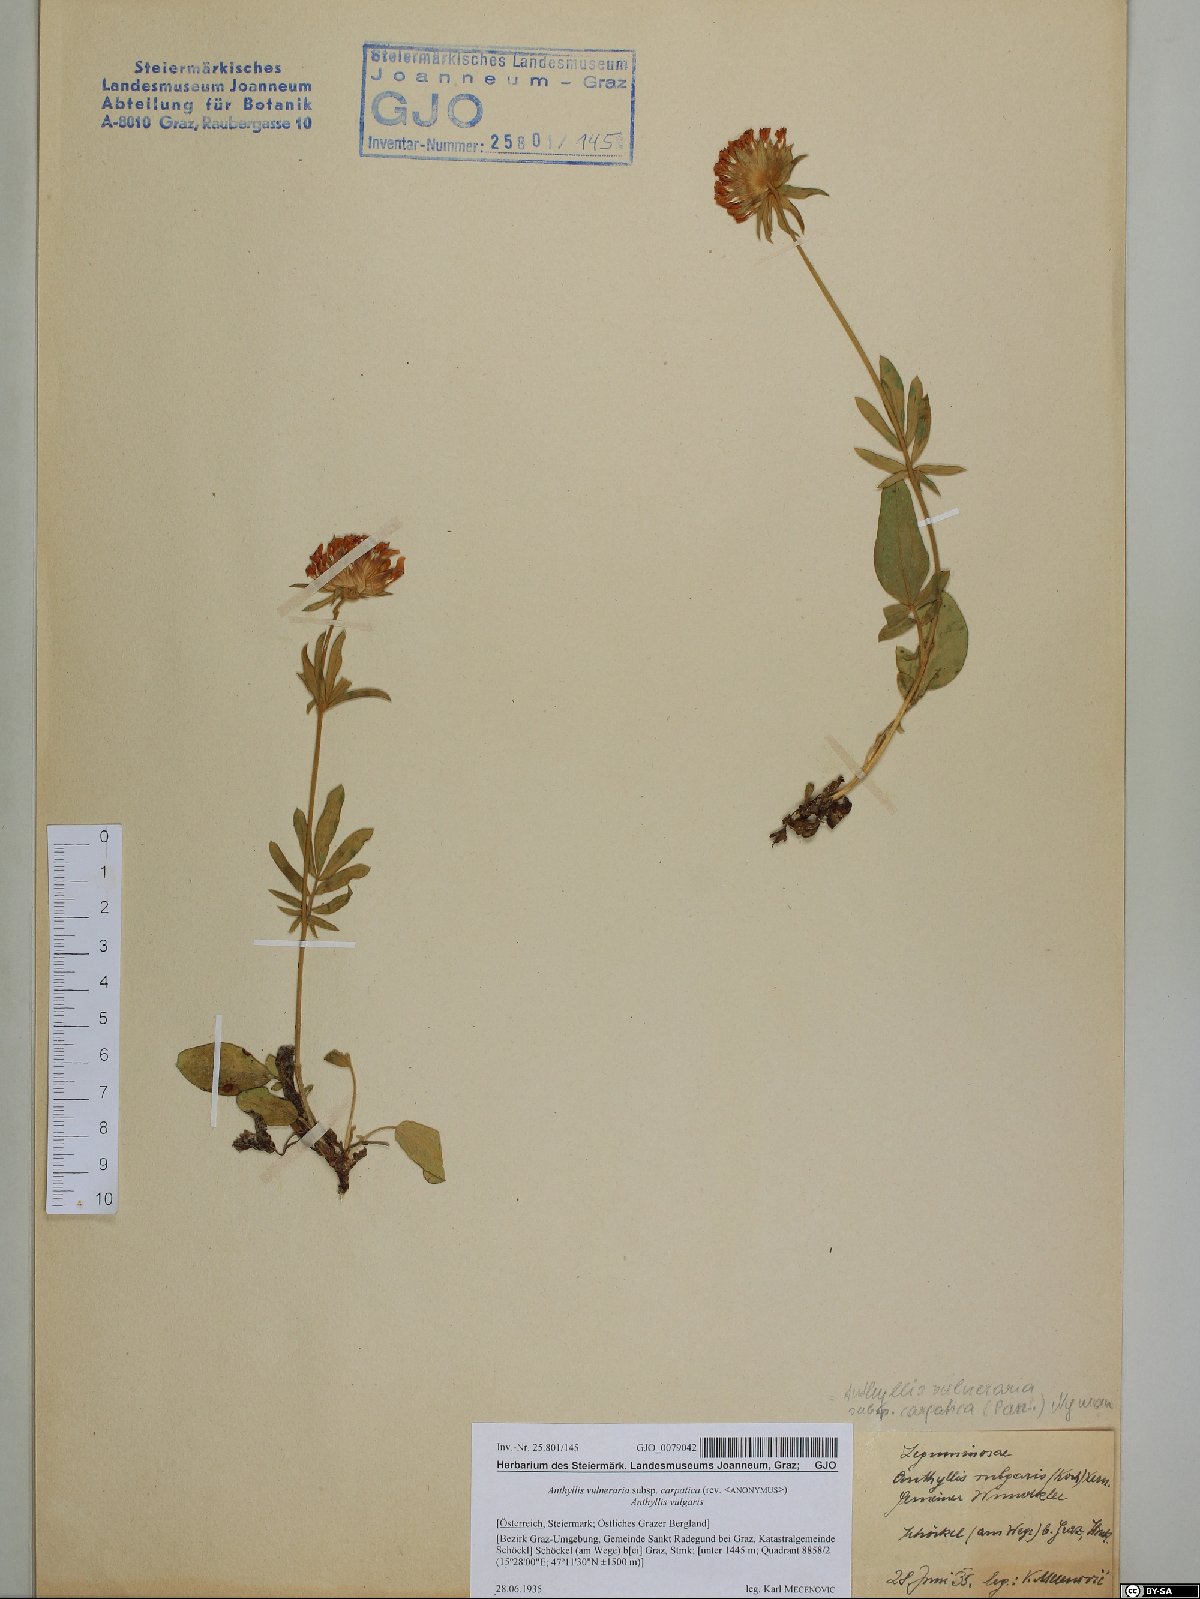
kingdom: Plantae
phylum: Tracheophyta
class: Magnoliopsida
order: Fabales
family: Fabaceae
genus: Anthyllis
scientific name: Anthyllis vulneraria
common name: Kidney vetch
